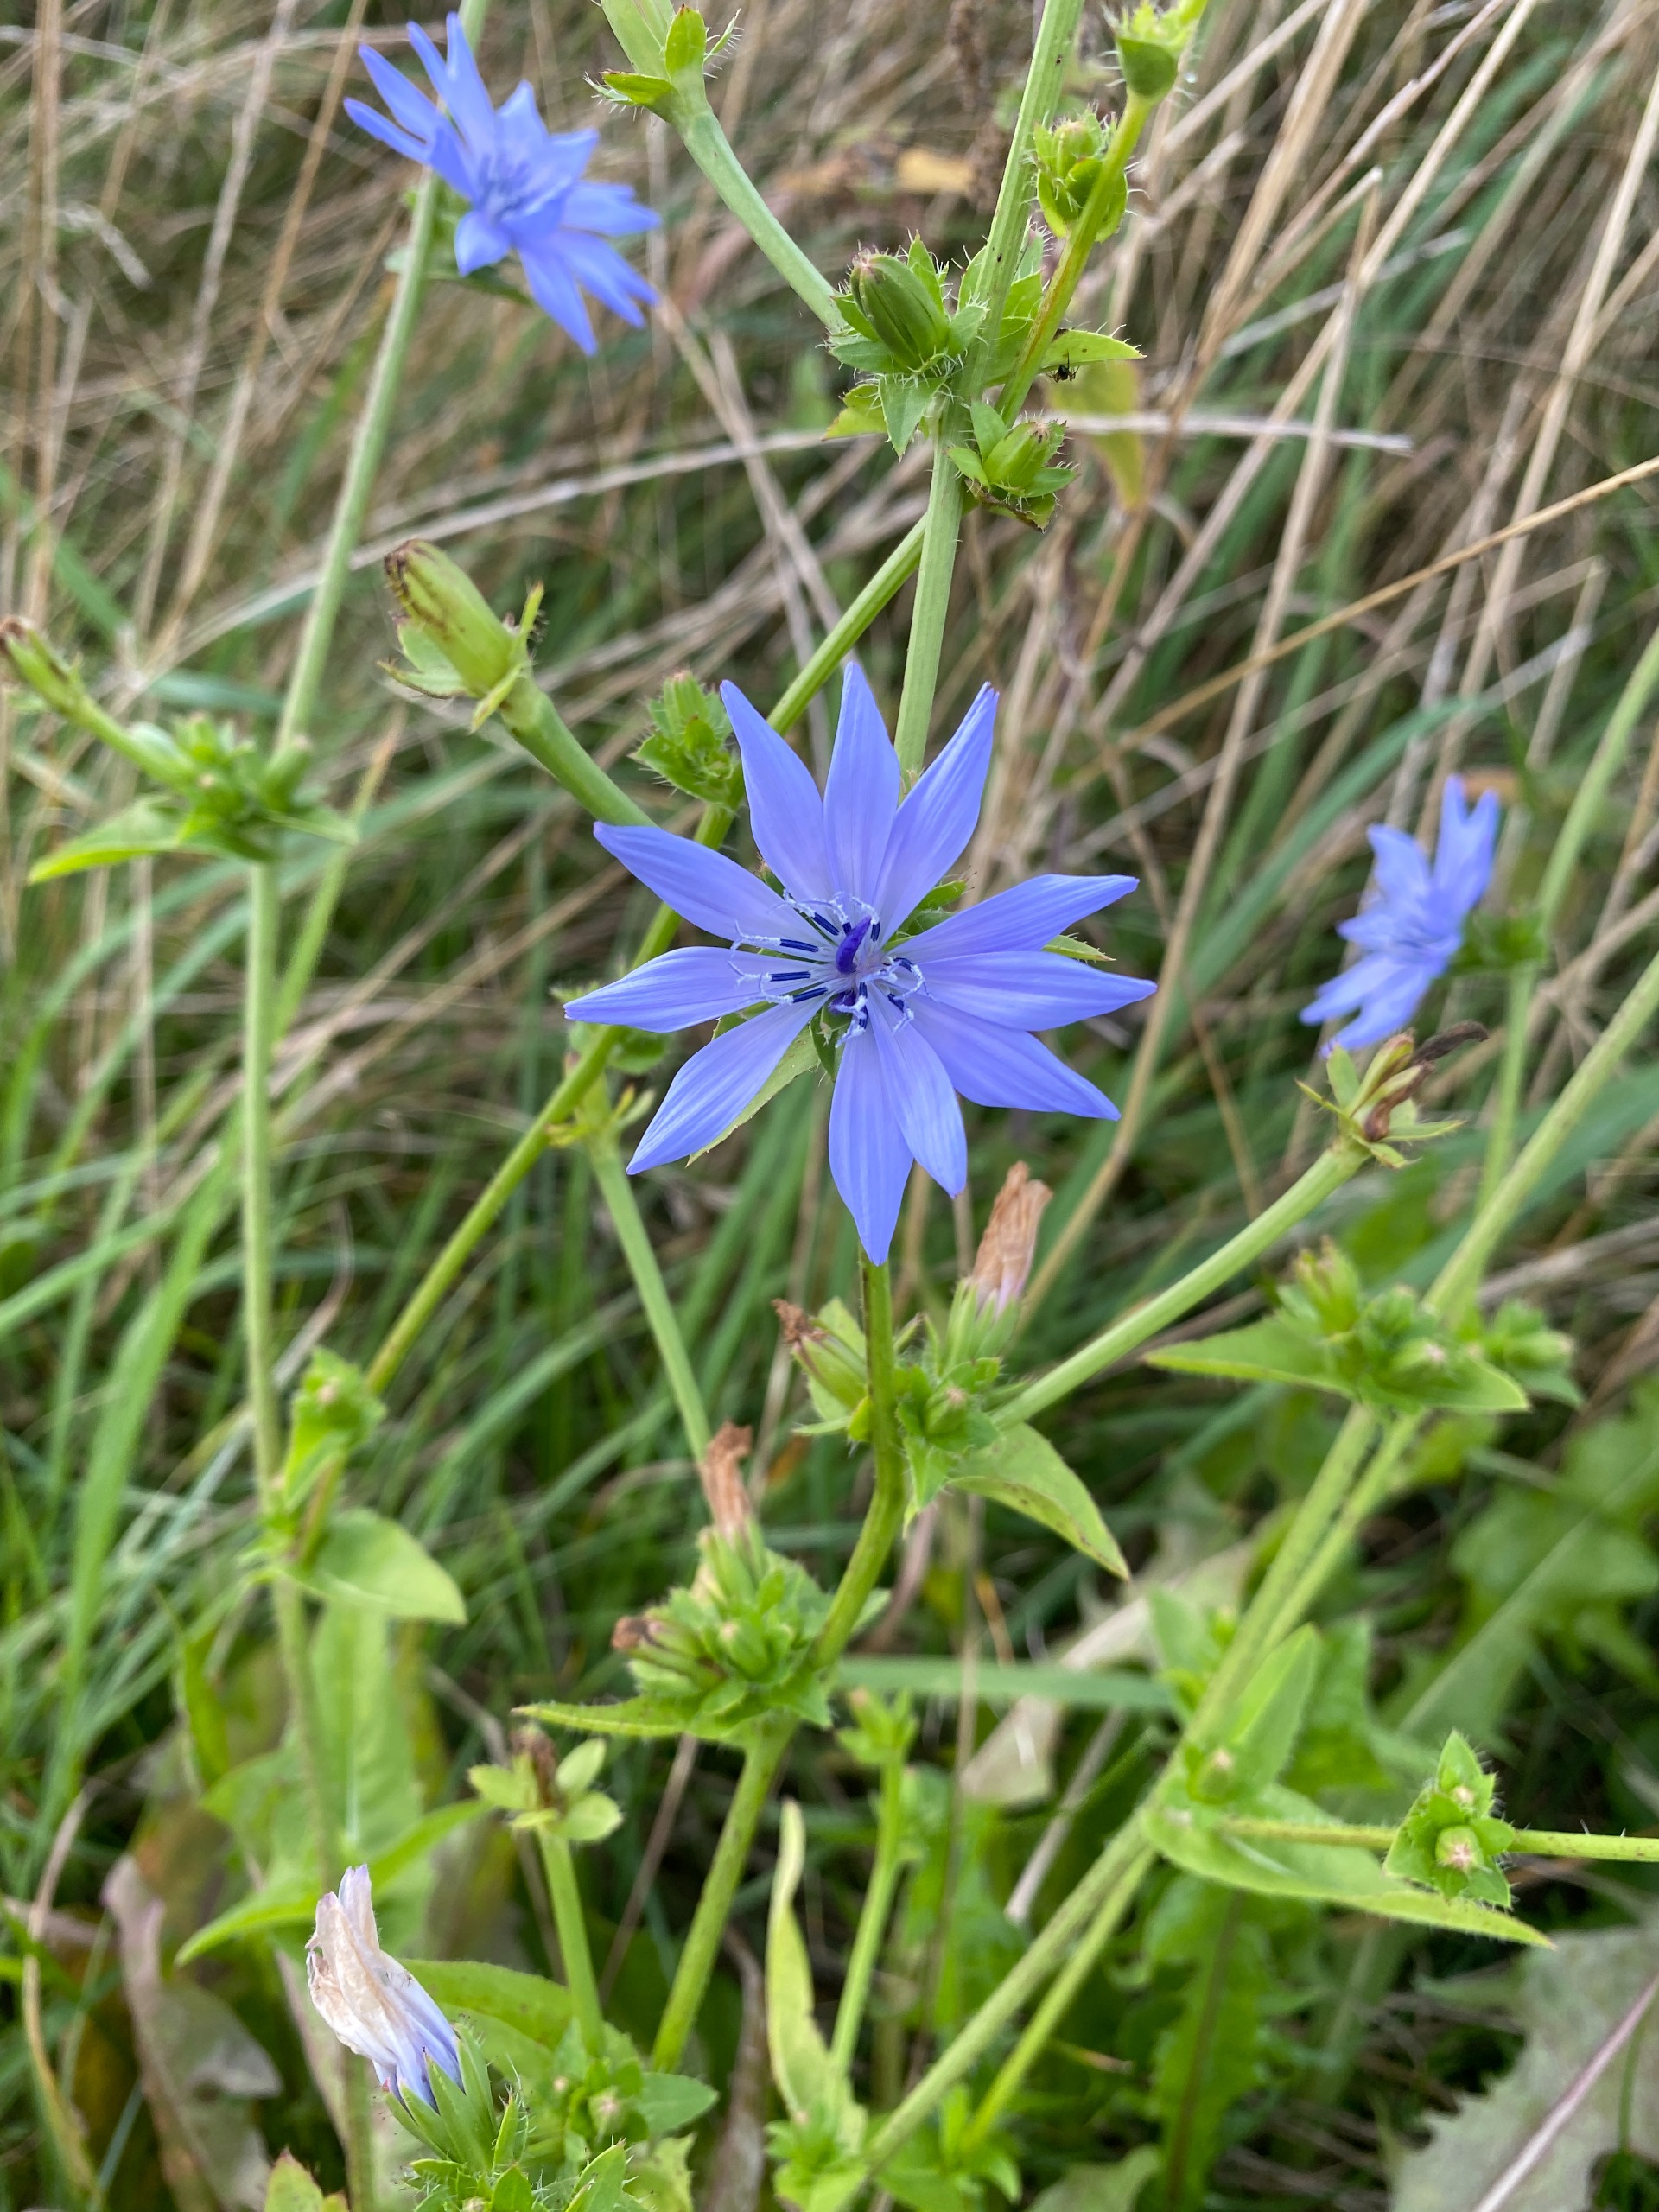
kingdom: Plantae
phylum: Tracheophyta
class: Magnoliopsida
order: Asterales
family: Asteraceae
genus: Cichorium
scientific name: Cichorium intybus
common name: Cikorie
